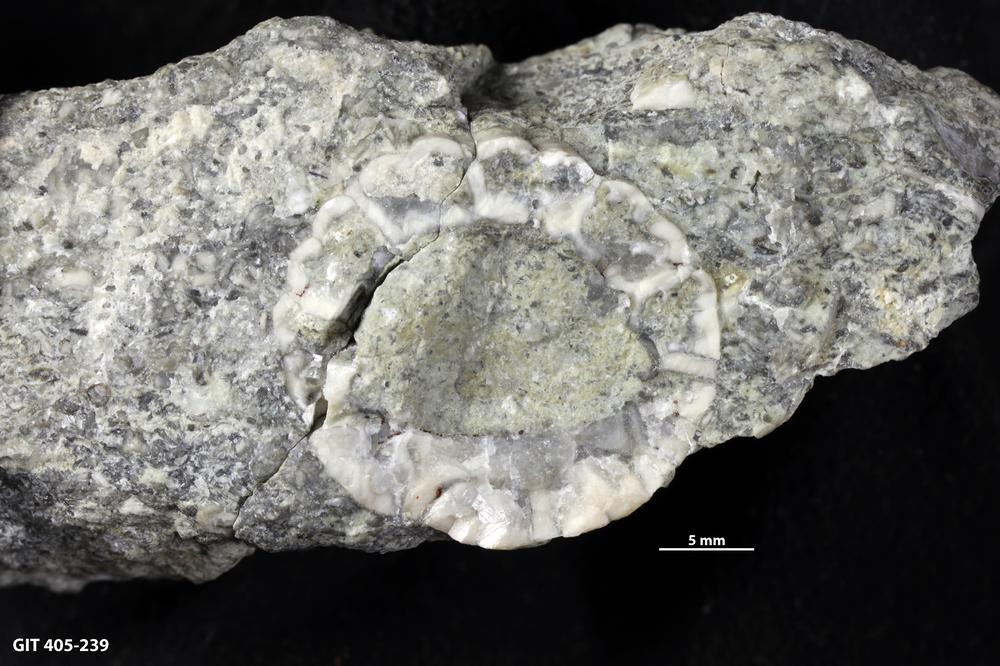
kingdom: Animalia
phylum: Echinodermata
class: Crinoidea
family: Eucalyptocrinitidae
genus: Eucalyptocrinites
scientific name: Eucalyptocrinites
